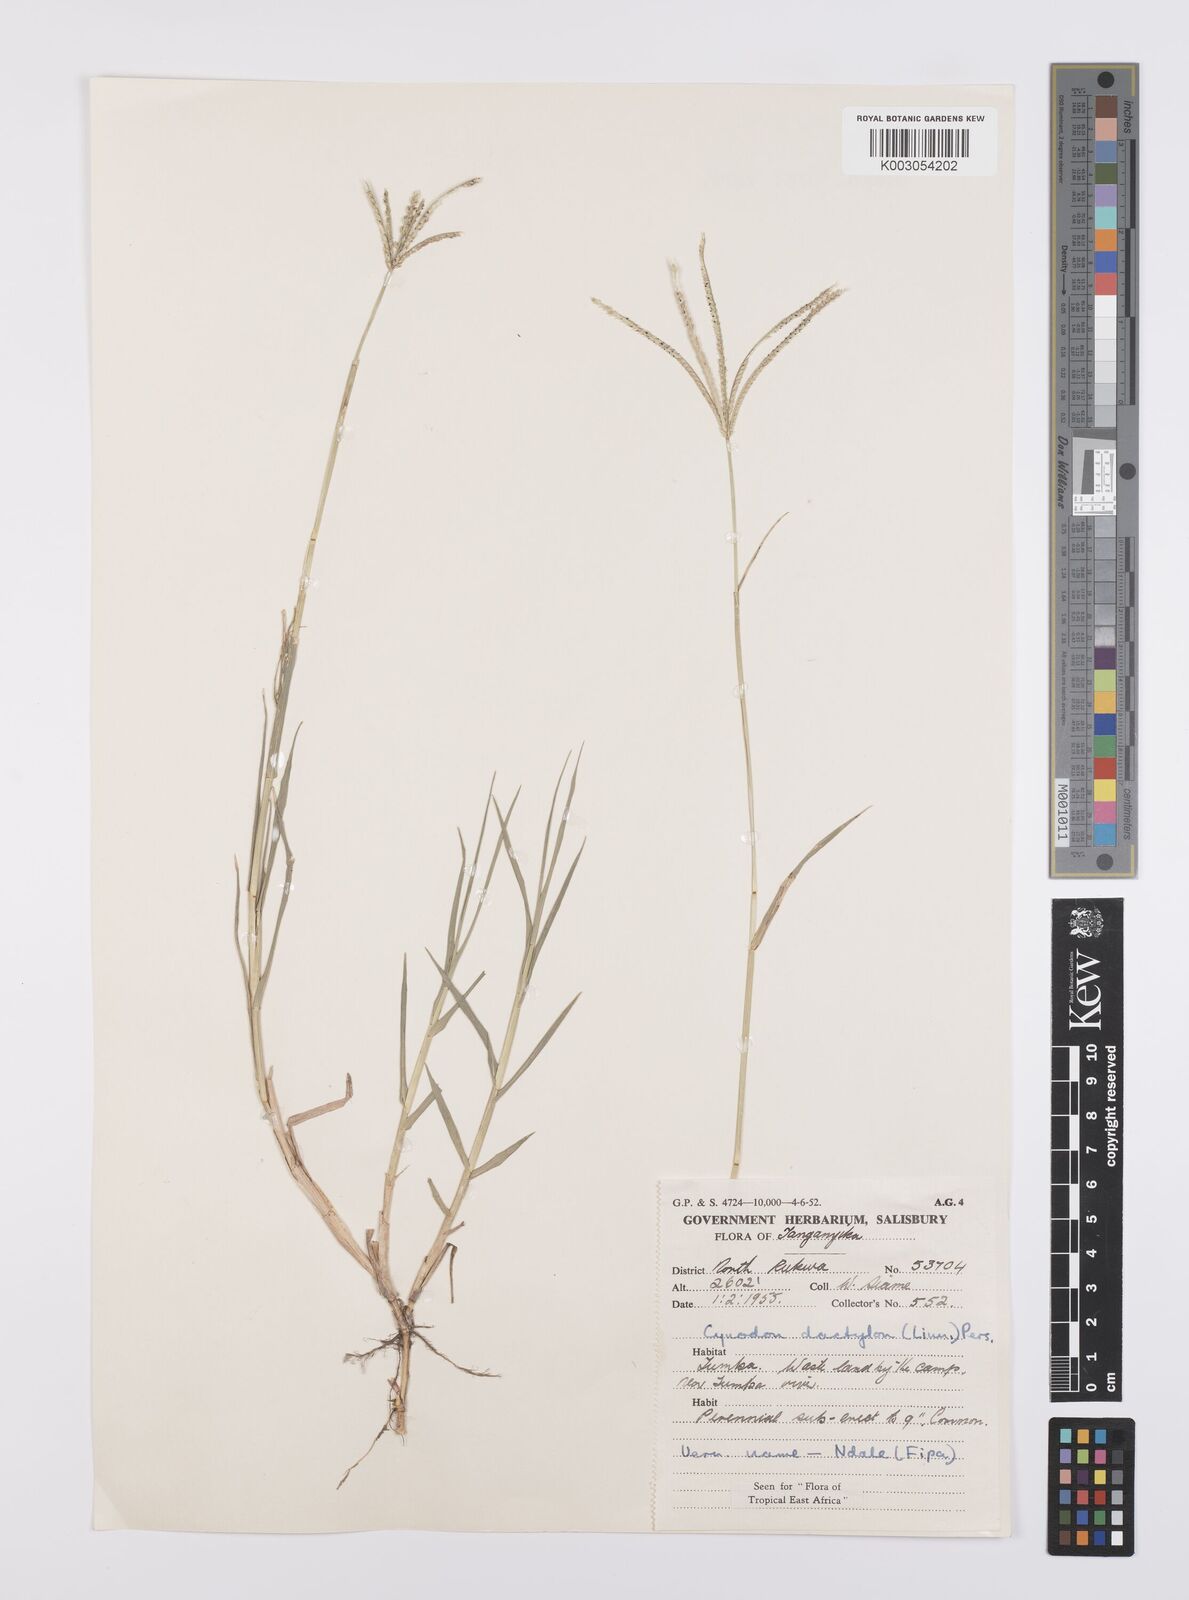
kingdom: Plantae
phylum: Tracheophyta
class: Liliopsida
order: Poales
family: Poaceae
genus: Cynodon
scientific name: Cynodon dactylon
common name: Bermuda grass
